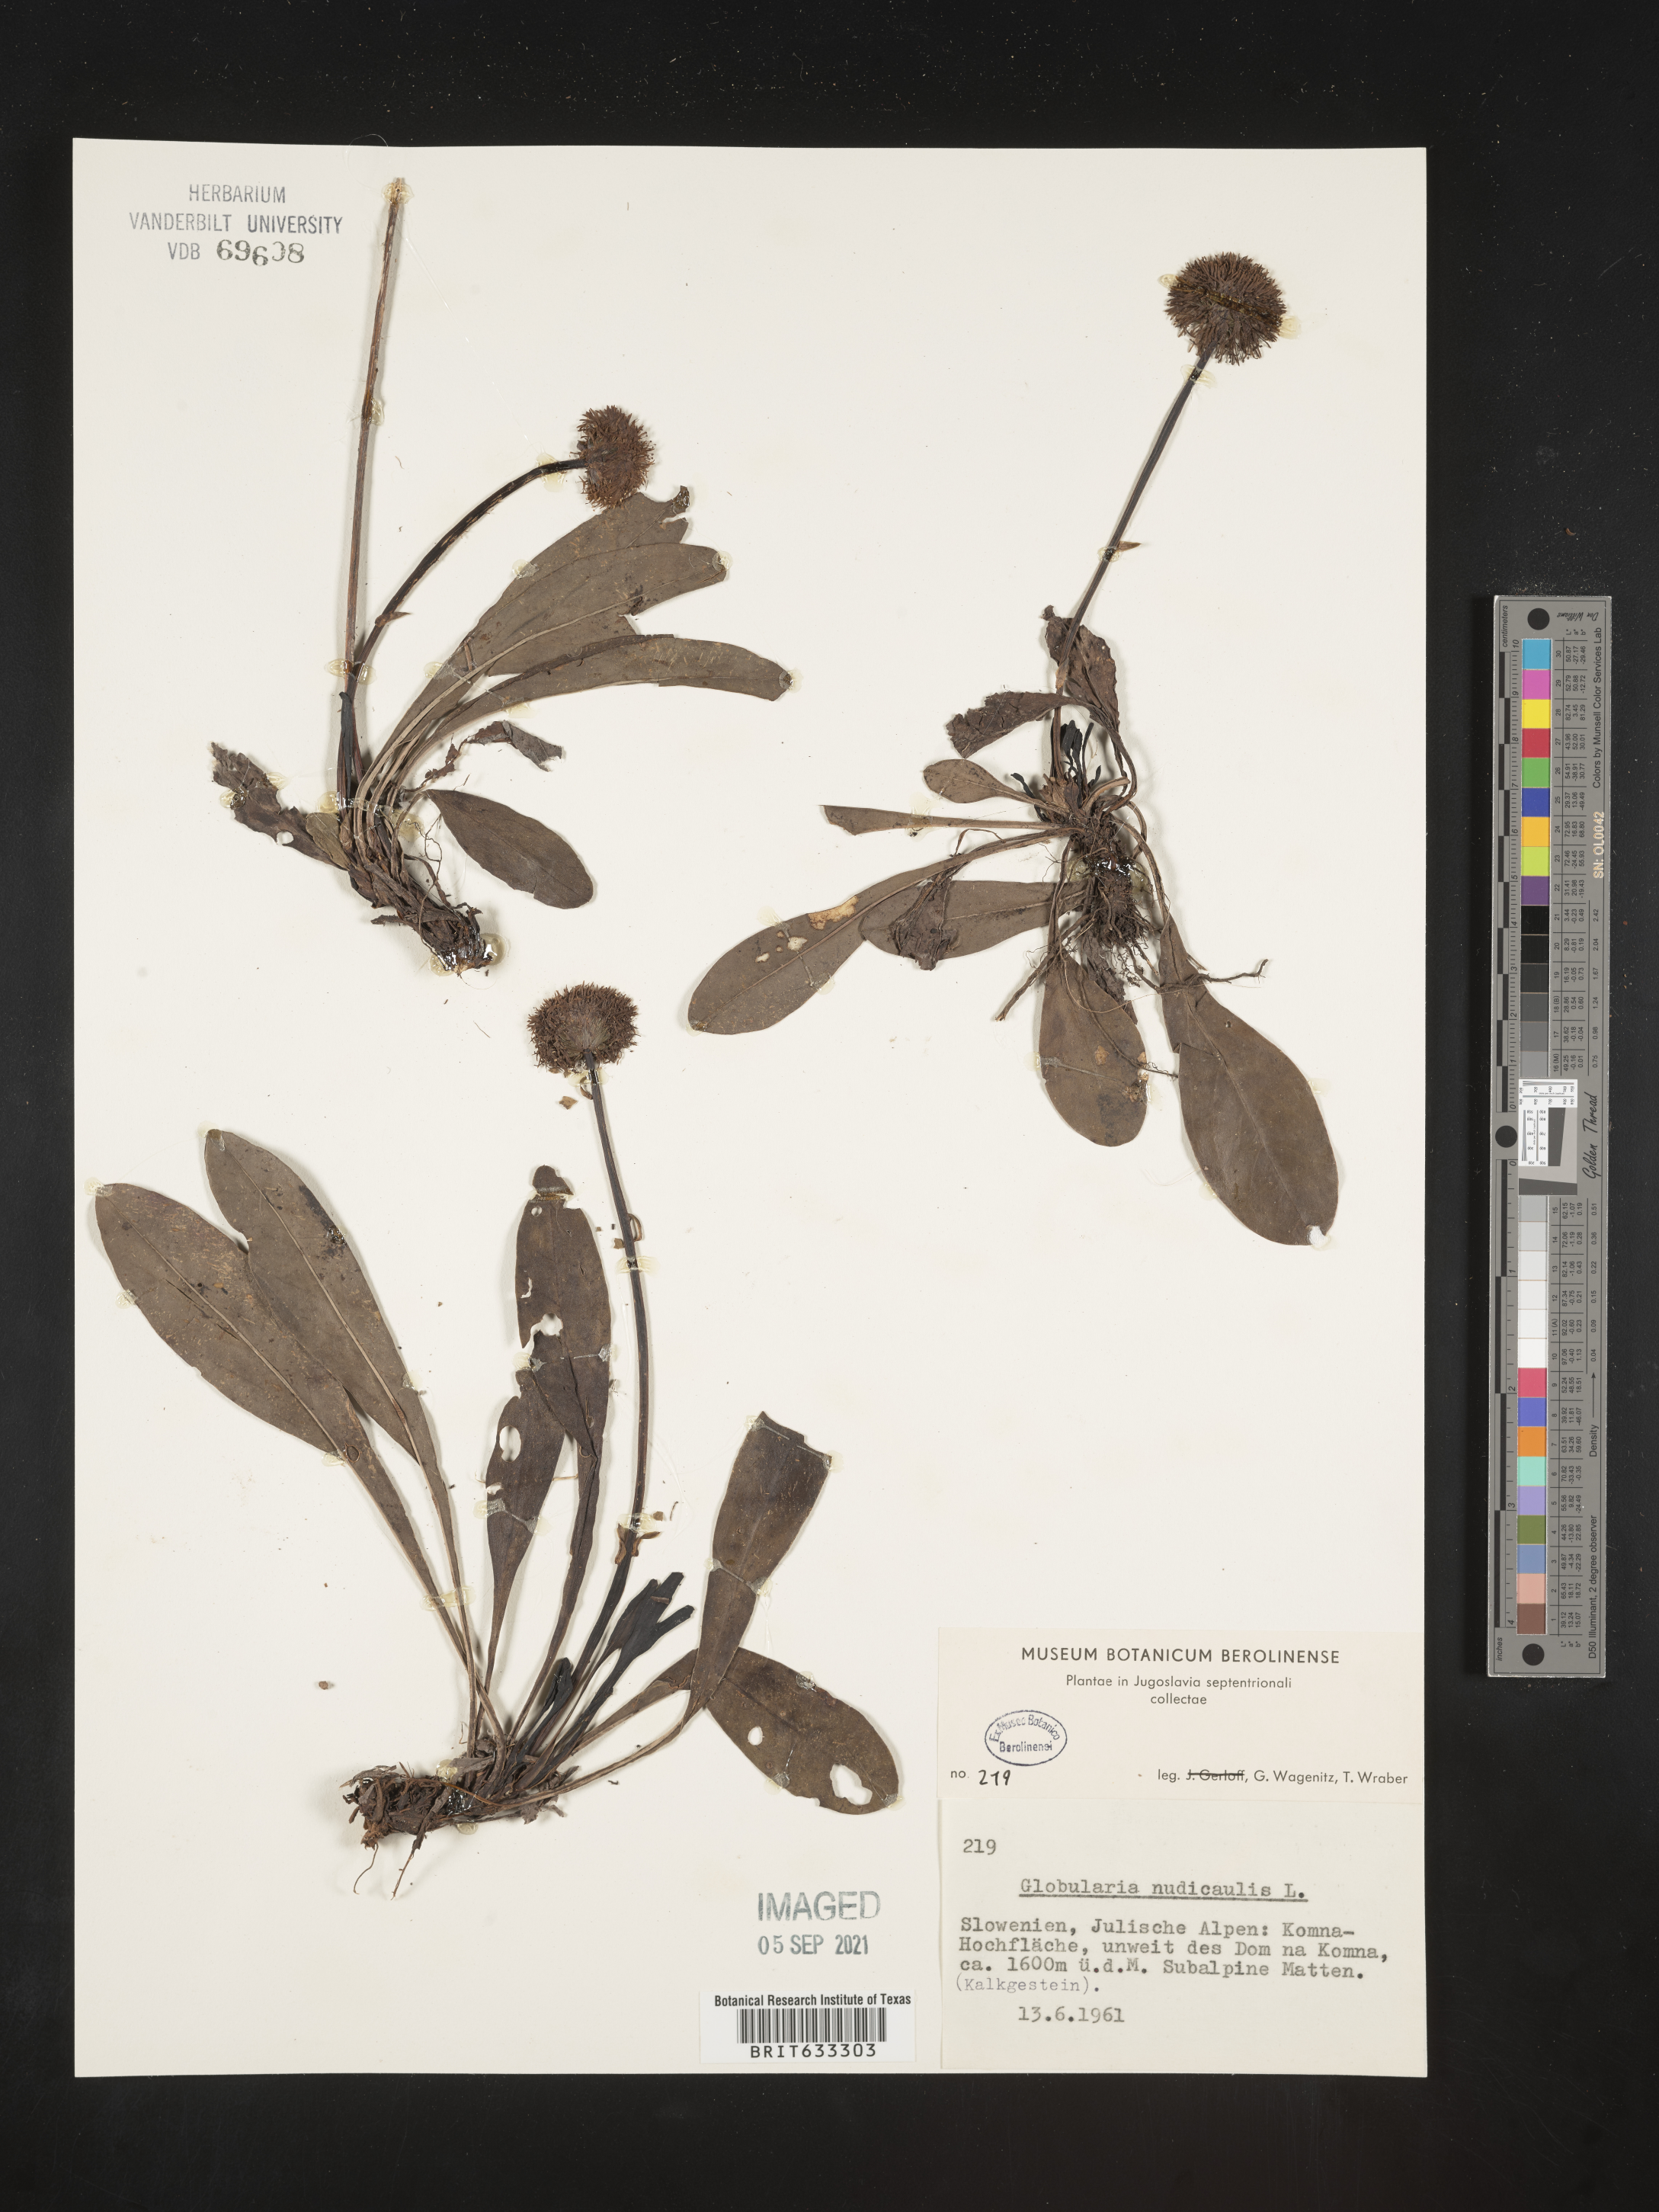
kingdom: Plantae
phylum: Tracheophyta
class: Magnoliopsida
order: Lamiales
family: Plantaginaceae
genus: Globularia
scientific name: Globularia
